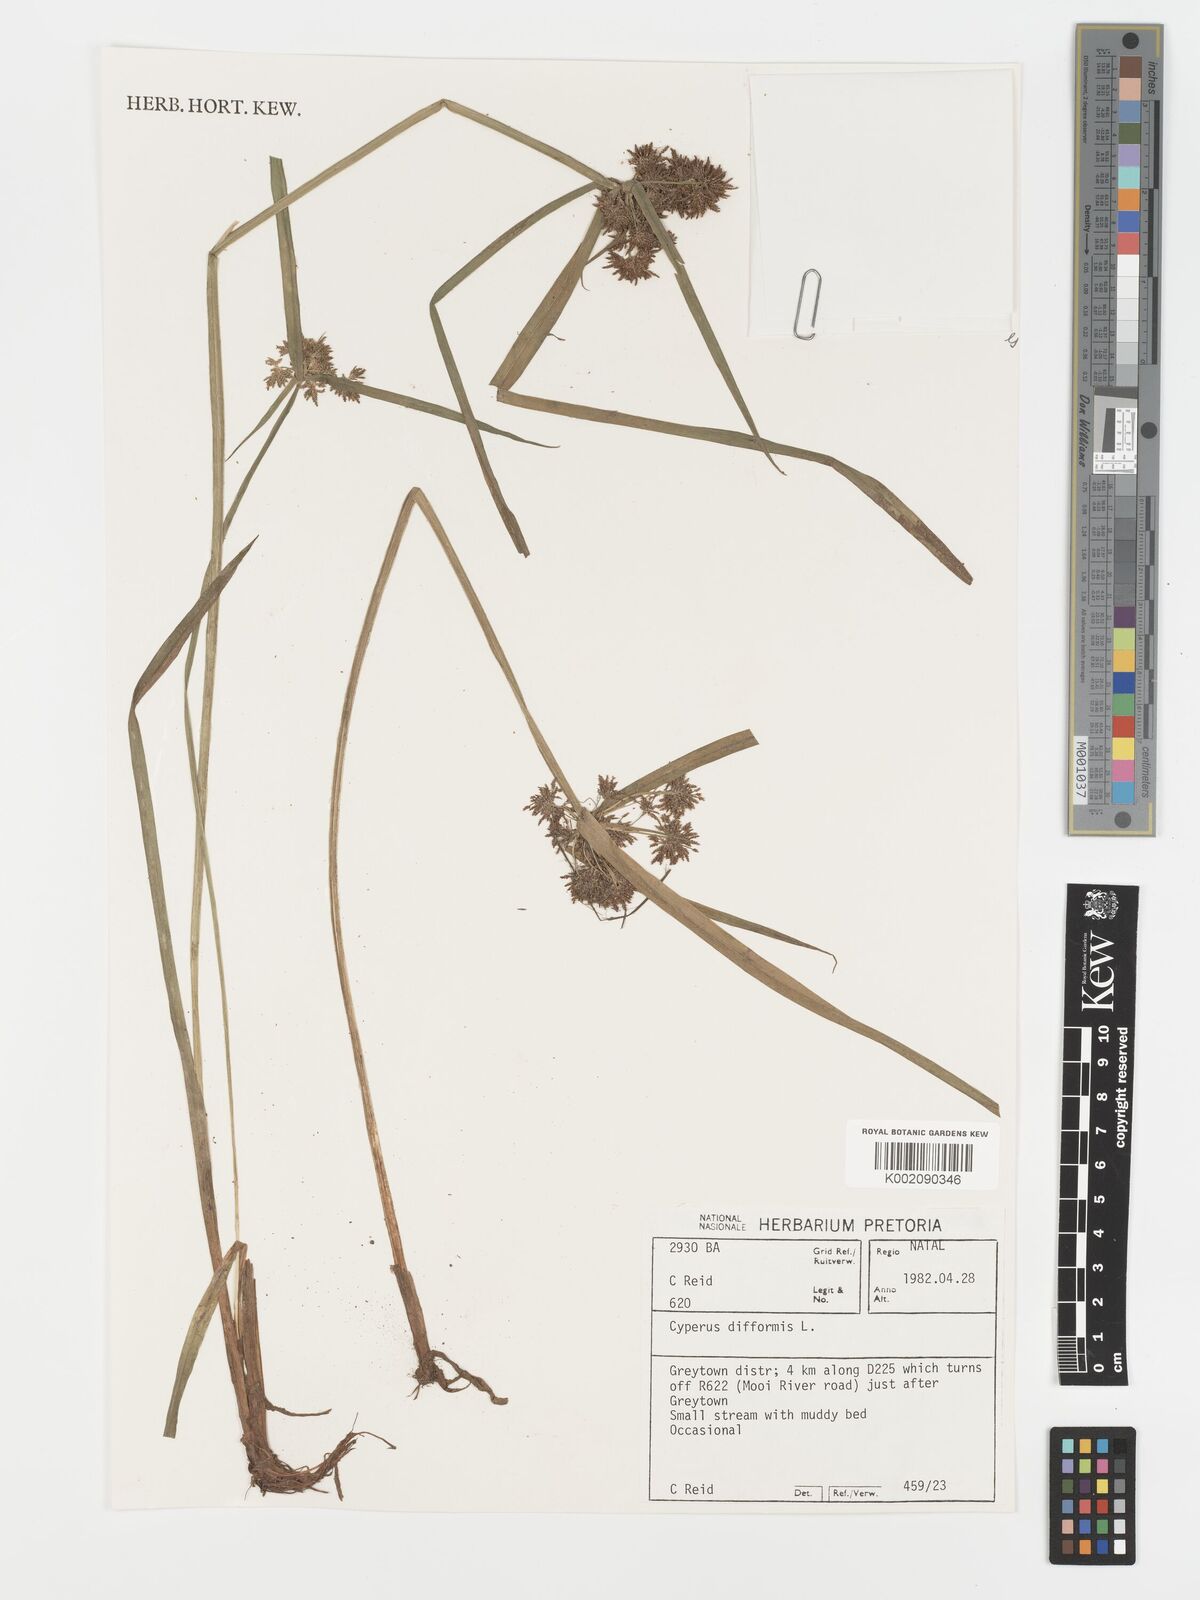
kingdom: Plantae
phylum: Tracheophyta
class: Liliopsida
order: Poales
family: Cyperaceae
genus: Cyperus
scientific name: Cyperus difformis
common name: Variable flatsedge
